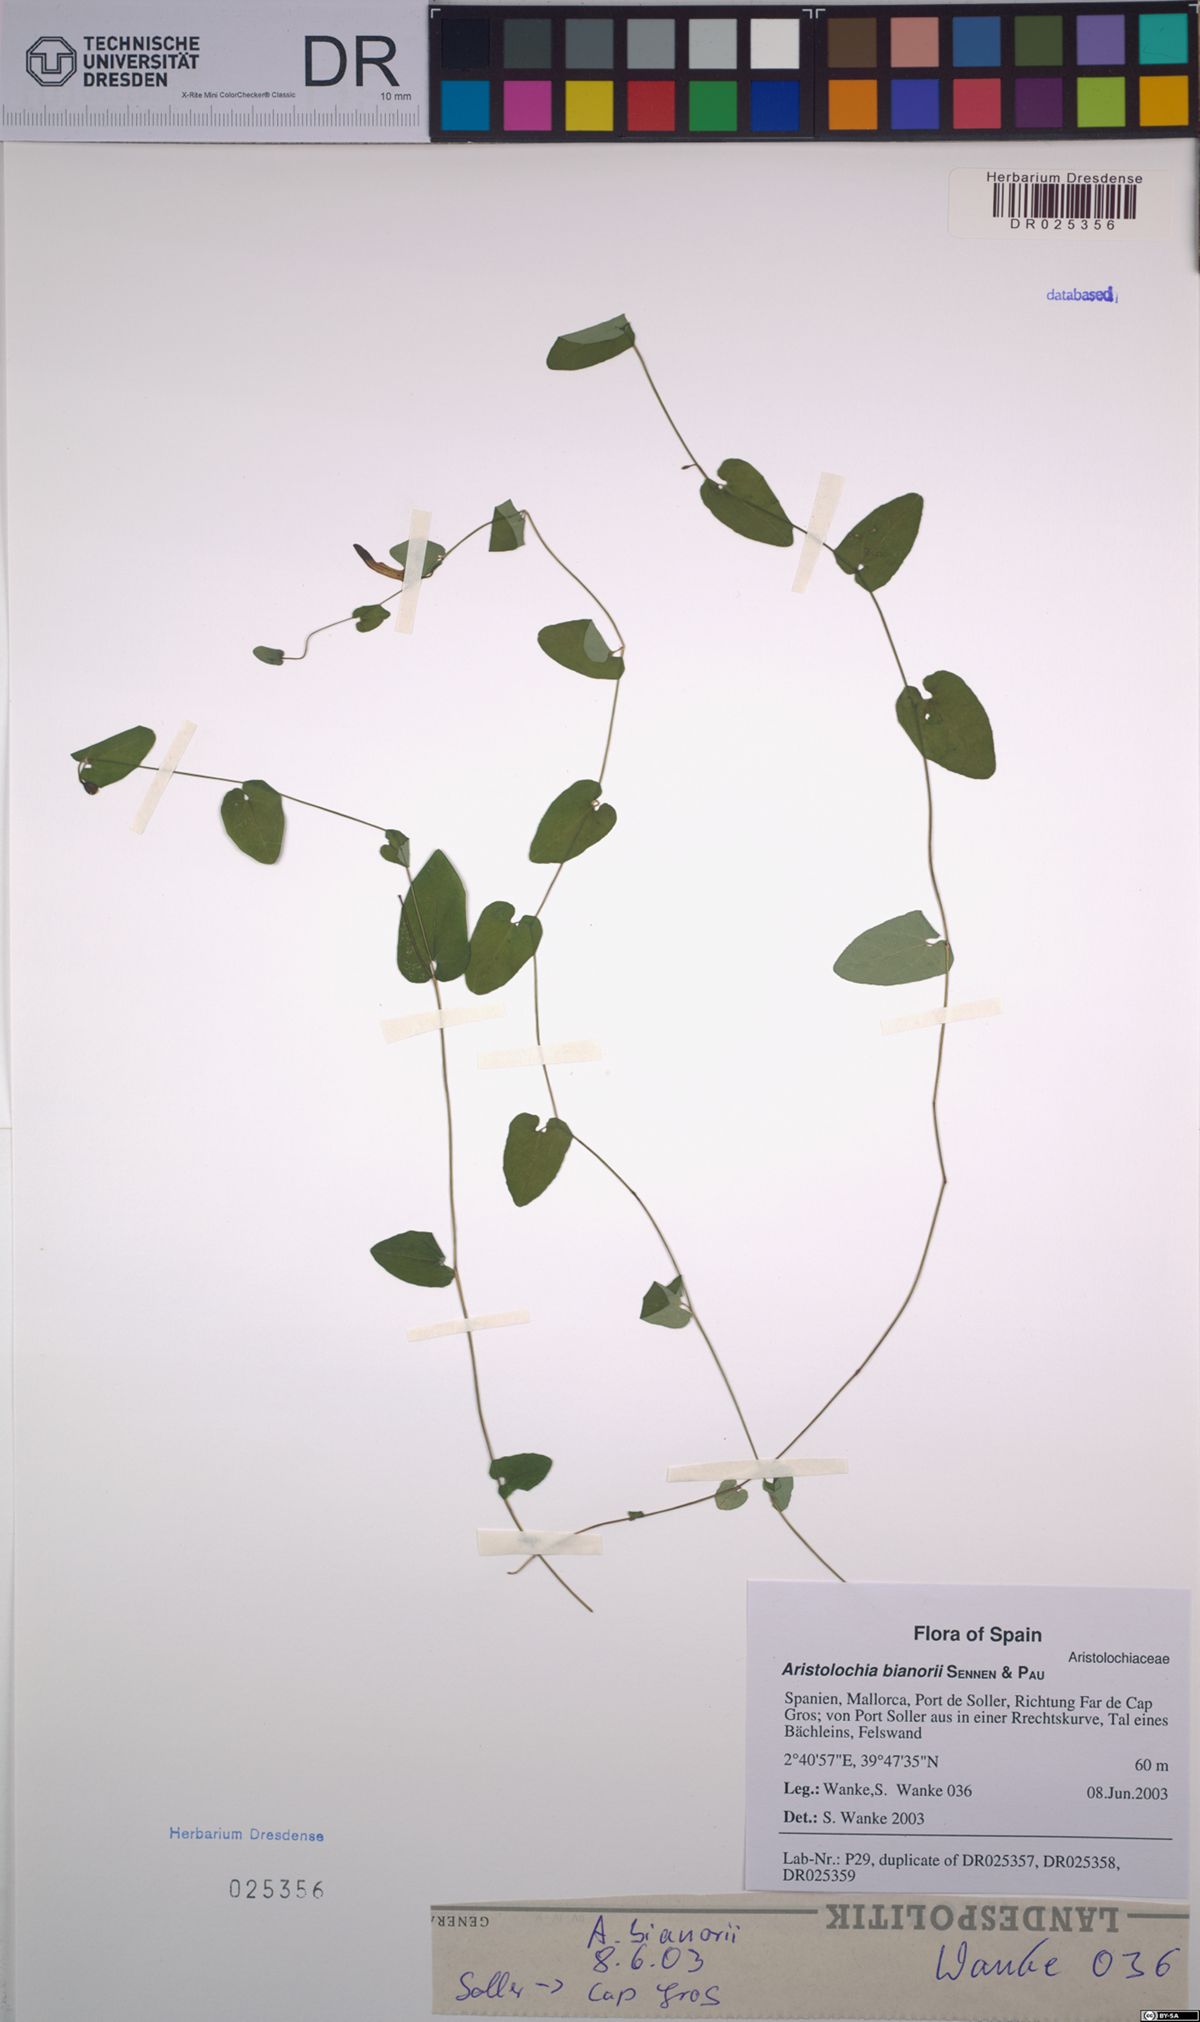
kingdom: Plantae
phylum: Tracheophyta
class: Magnoliopsida
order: Piperales
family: Aristolochiaceae
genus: Aristolochia
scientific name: Aristolochia bianorii
